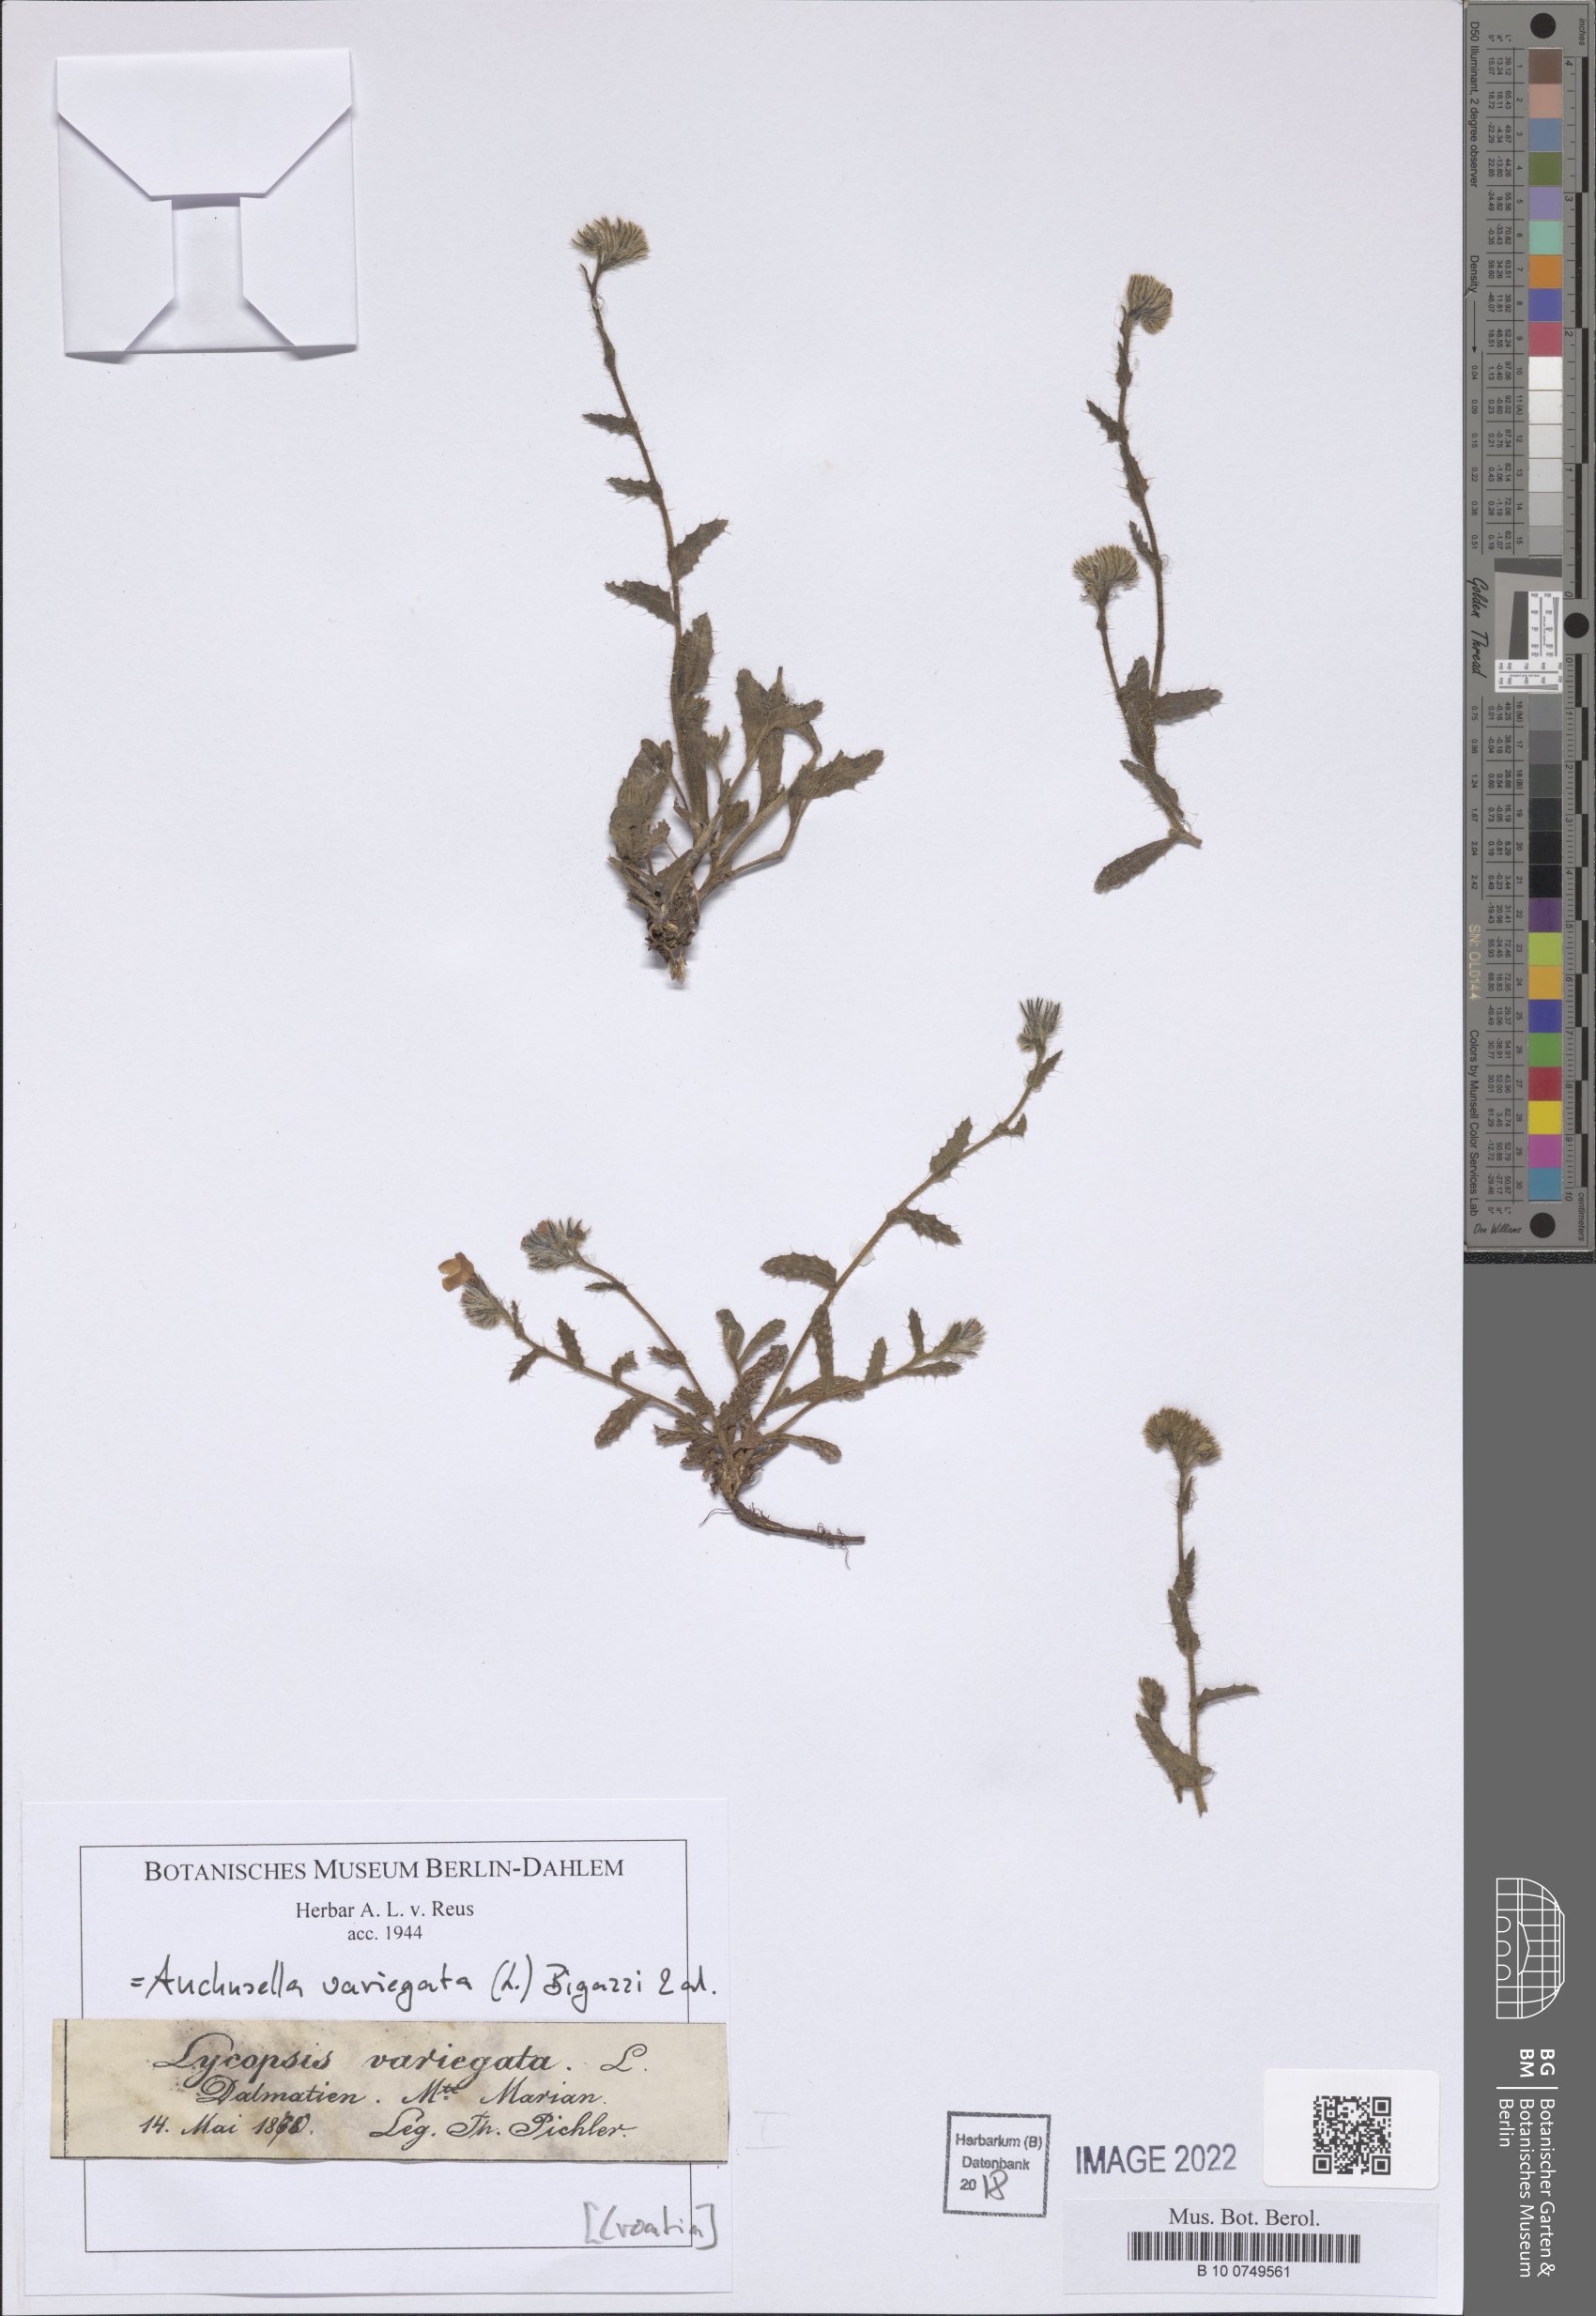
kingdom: Plantae
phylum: Tracheophyta
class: Magnoliopsida
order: Boraginales
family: Boraginaceae
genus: Anchusella
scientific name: Anchusella variegata
